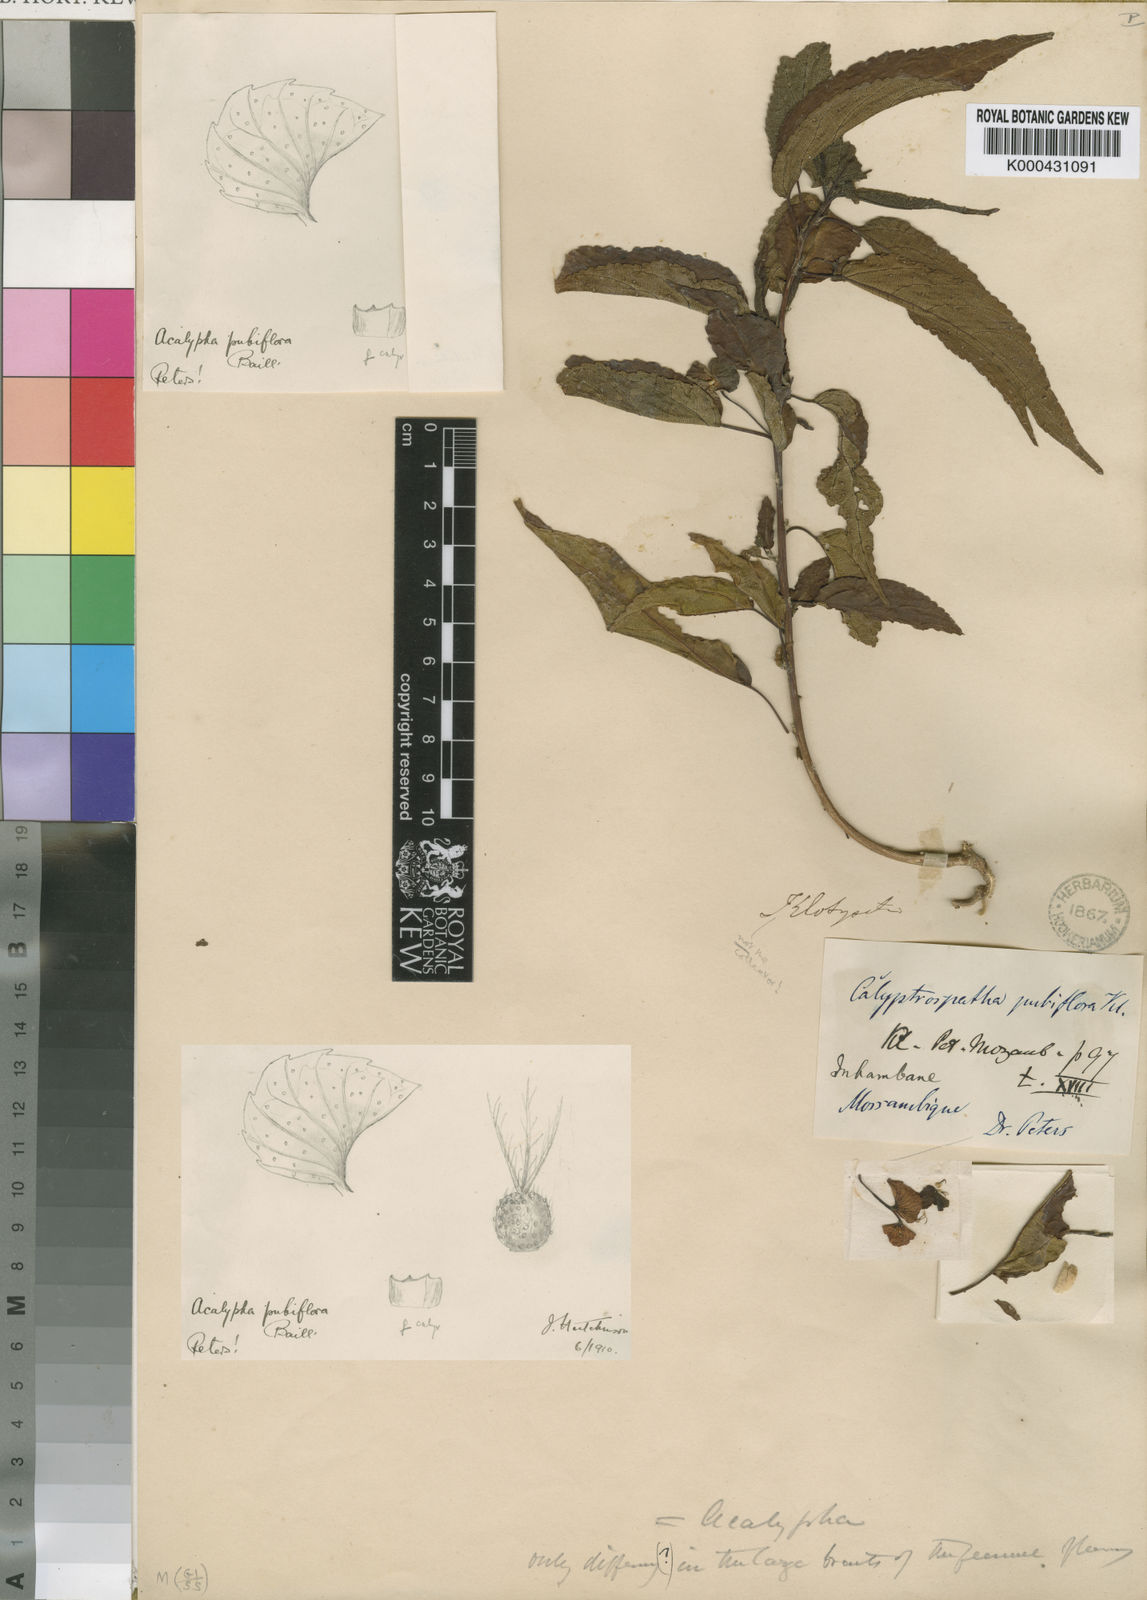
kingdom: Plantae
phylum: Tracheophyta
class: Magnoliopsida
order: Malpighiales
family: Euphorbiaceae
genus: Acalypha
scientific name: Acalypha pubiflora
